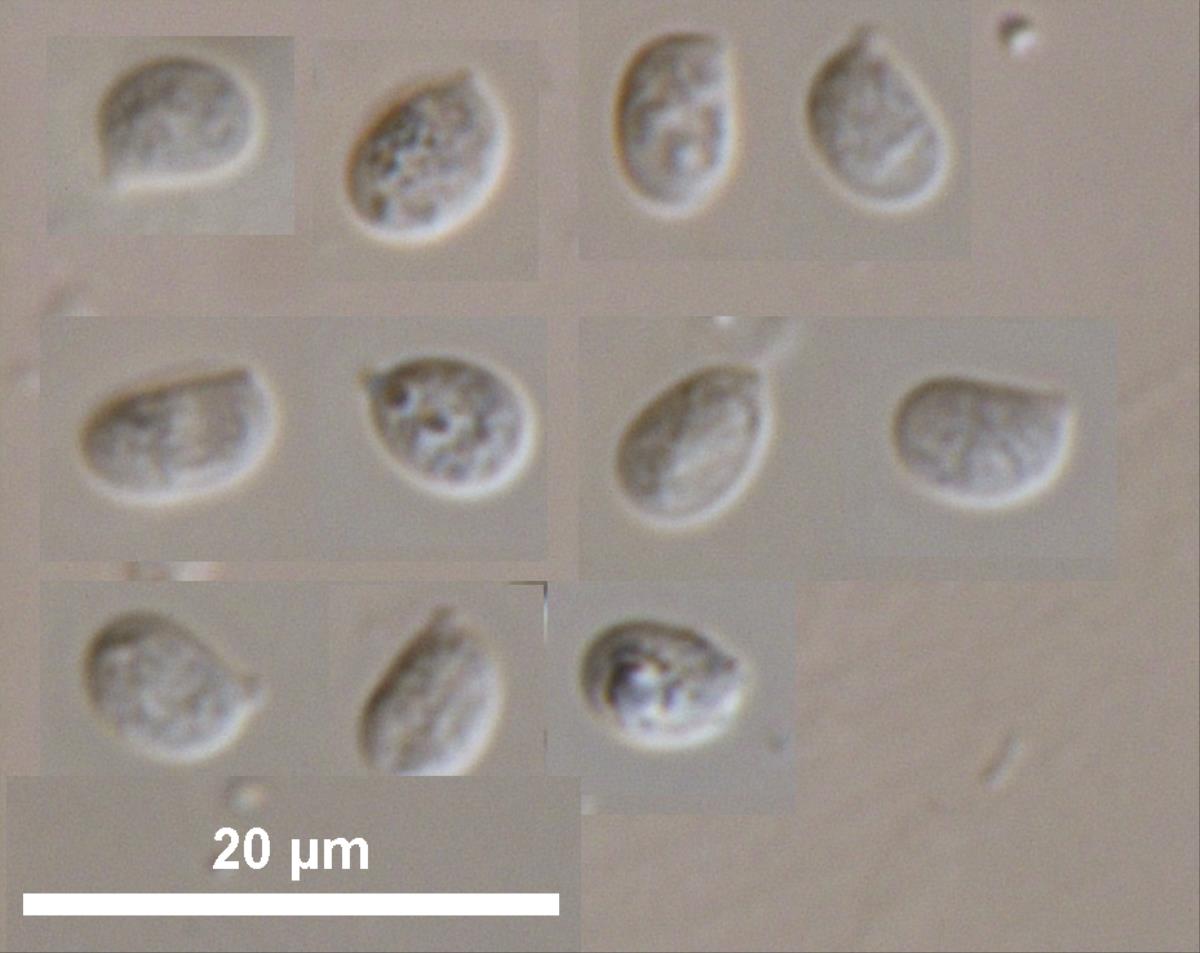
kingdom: Fungi
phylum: Basidiomycota
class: Agaricomycetes
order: Agaricales
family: Physalacriaceae
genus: Gloiocephala
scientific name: Gloiocephala
